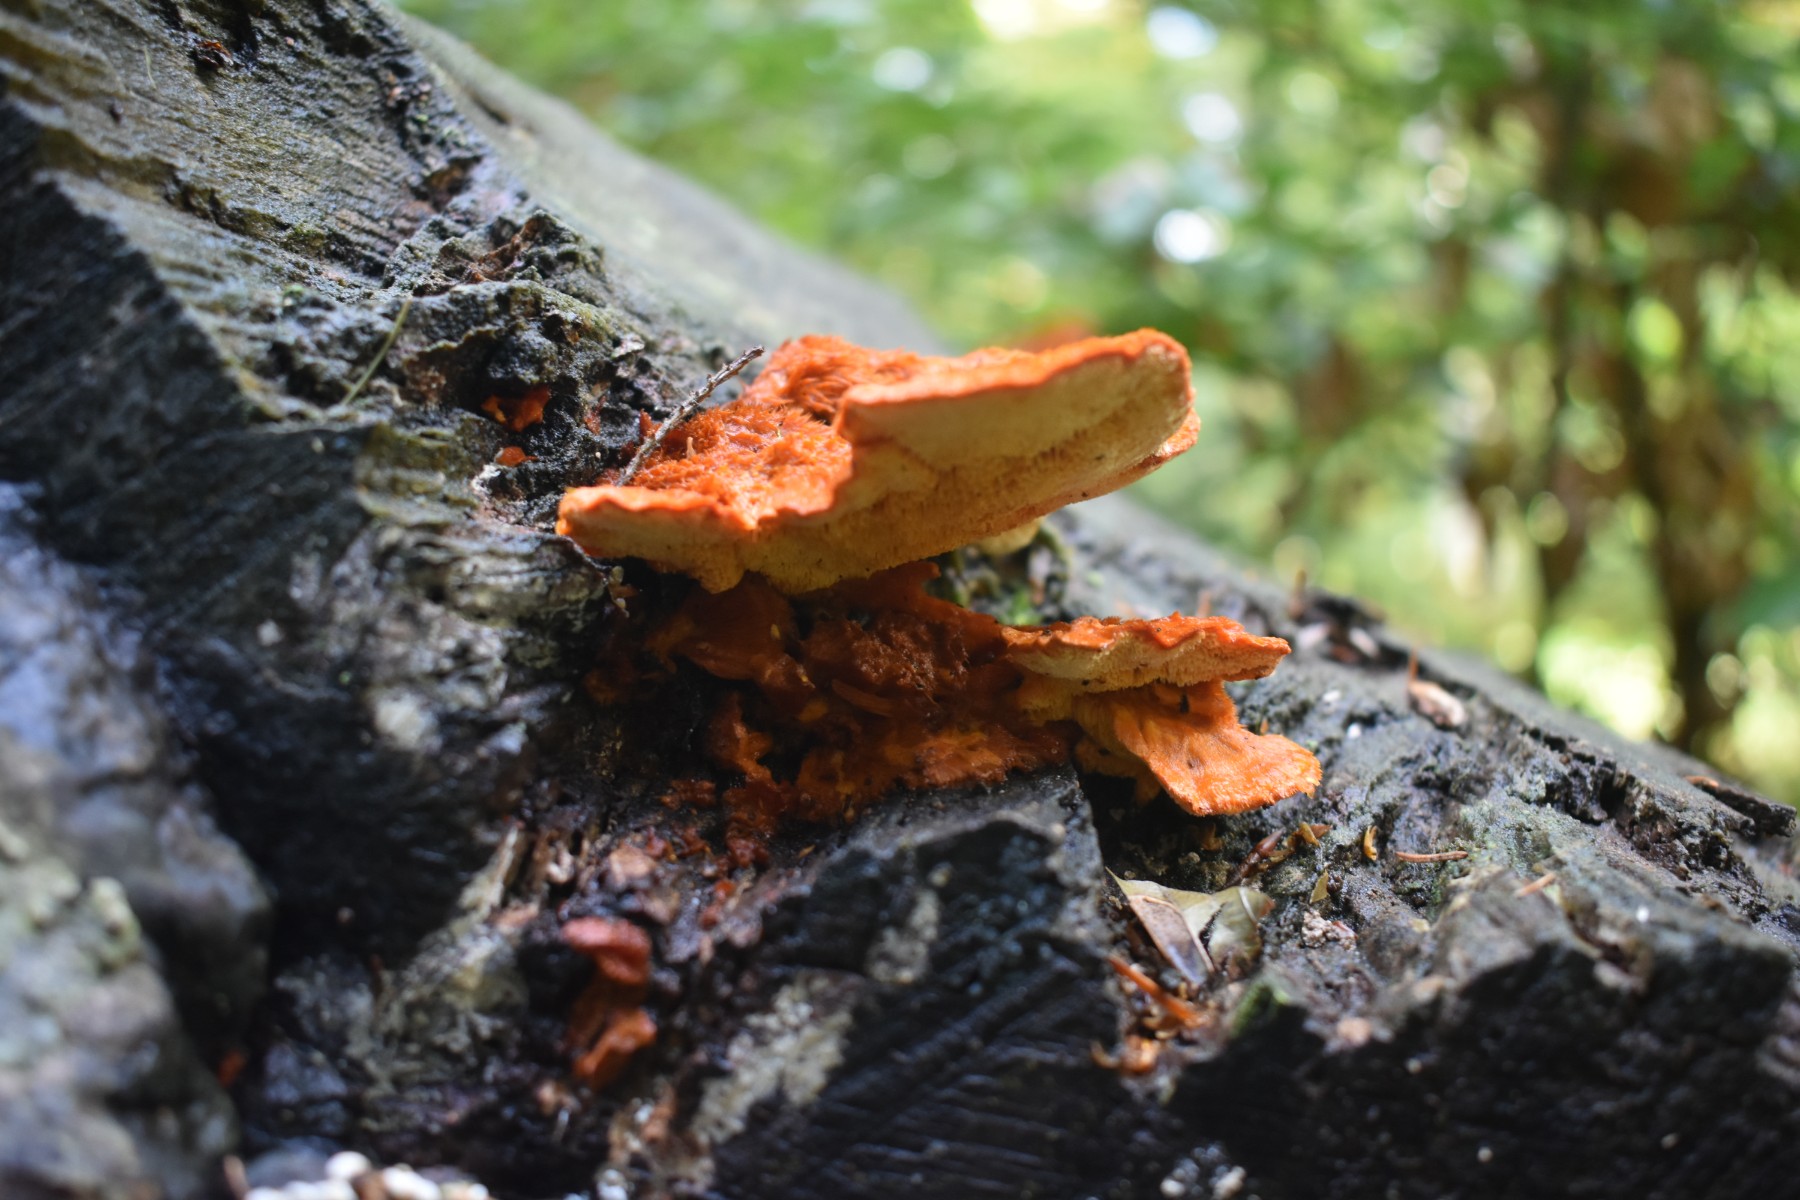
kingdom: Fungi
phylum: Basidiomycota
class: Agaricomycetes
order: Polyporales
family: Pycnoporellaceae
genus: Pycnoporellus
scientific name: Pycnoporellus fulgens
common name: flammeporesvamp
